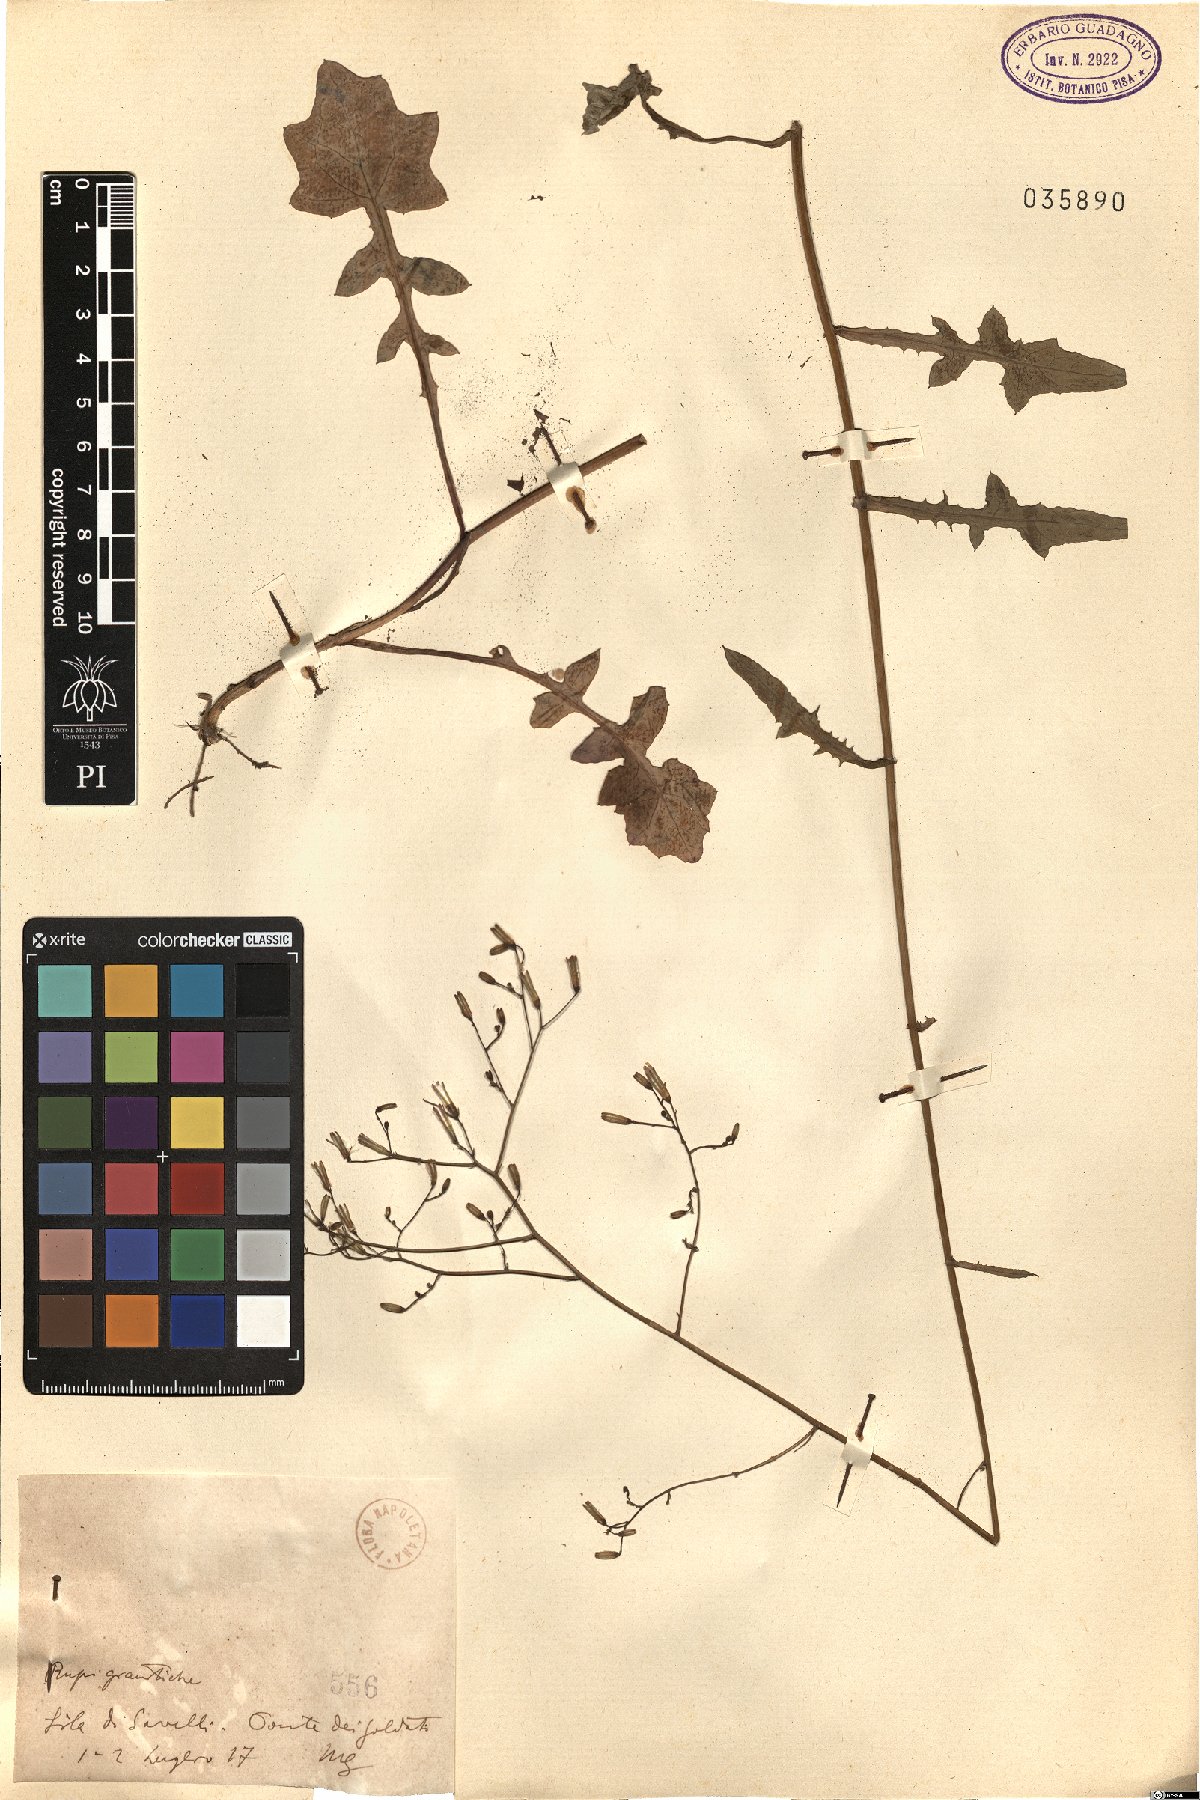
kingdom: Plantae
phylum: Tracheophyta
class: Magnoliopsida
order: Asterales
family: Asteraceae
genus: Lactuca
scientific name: Lactuca
